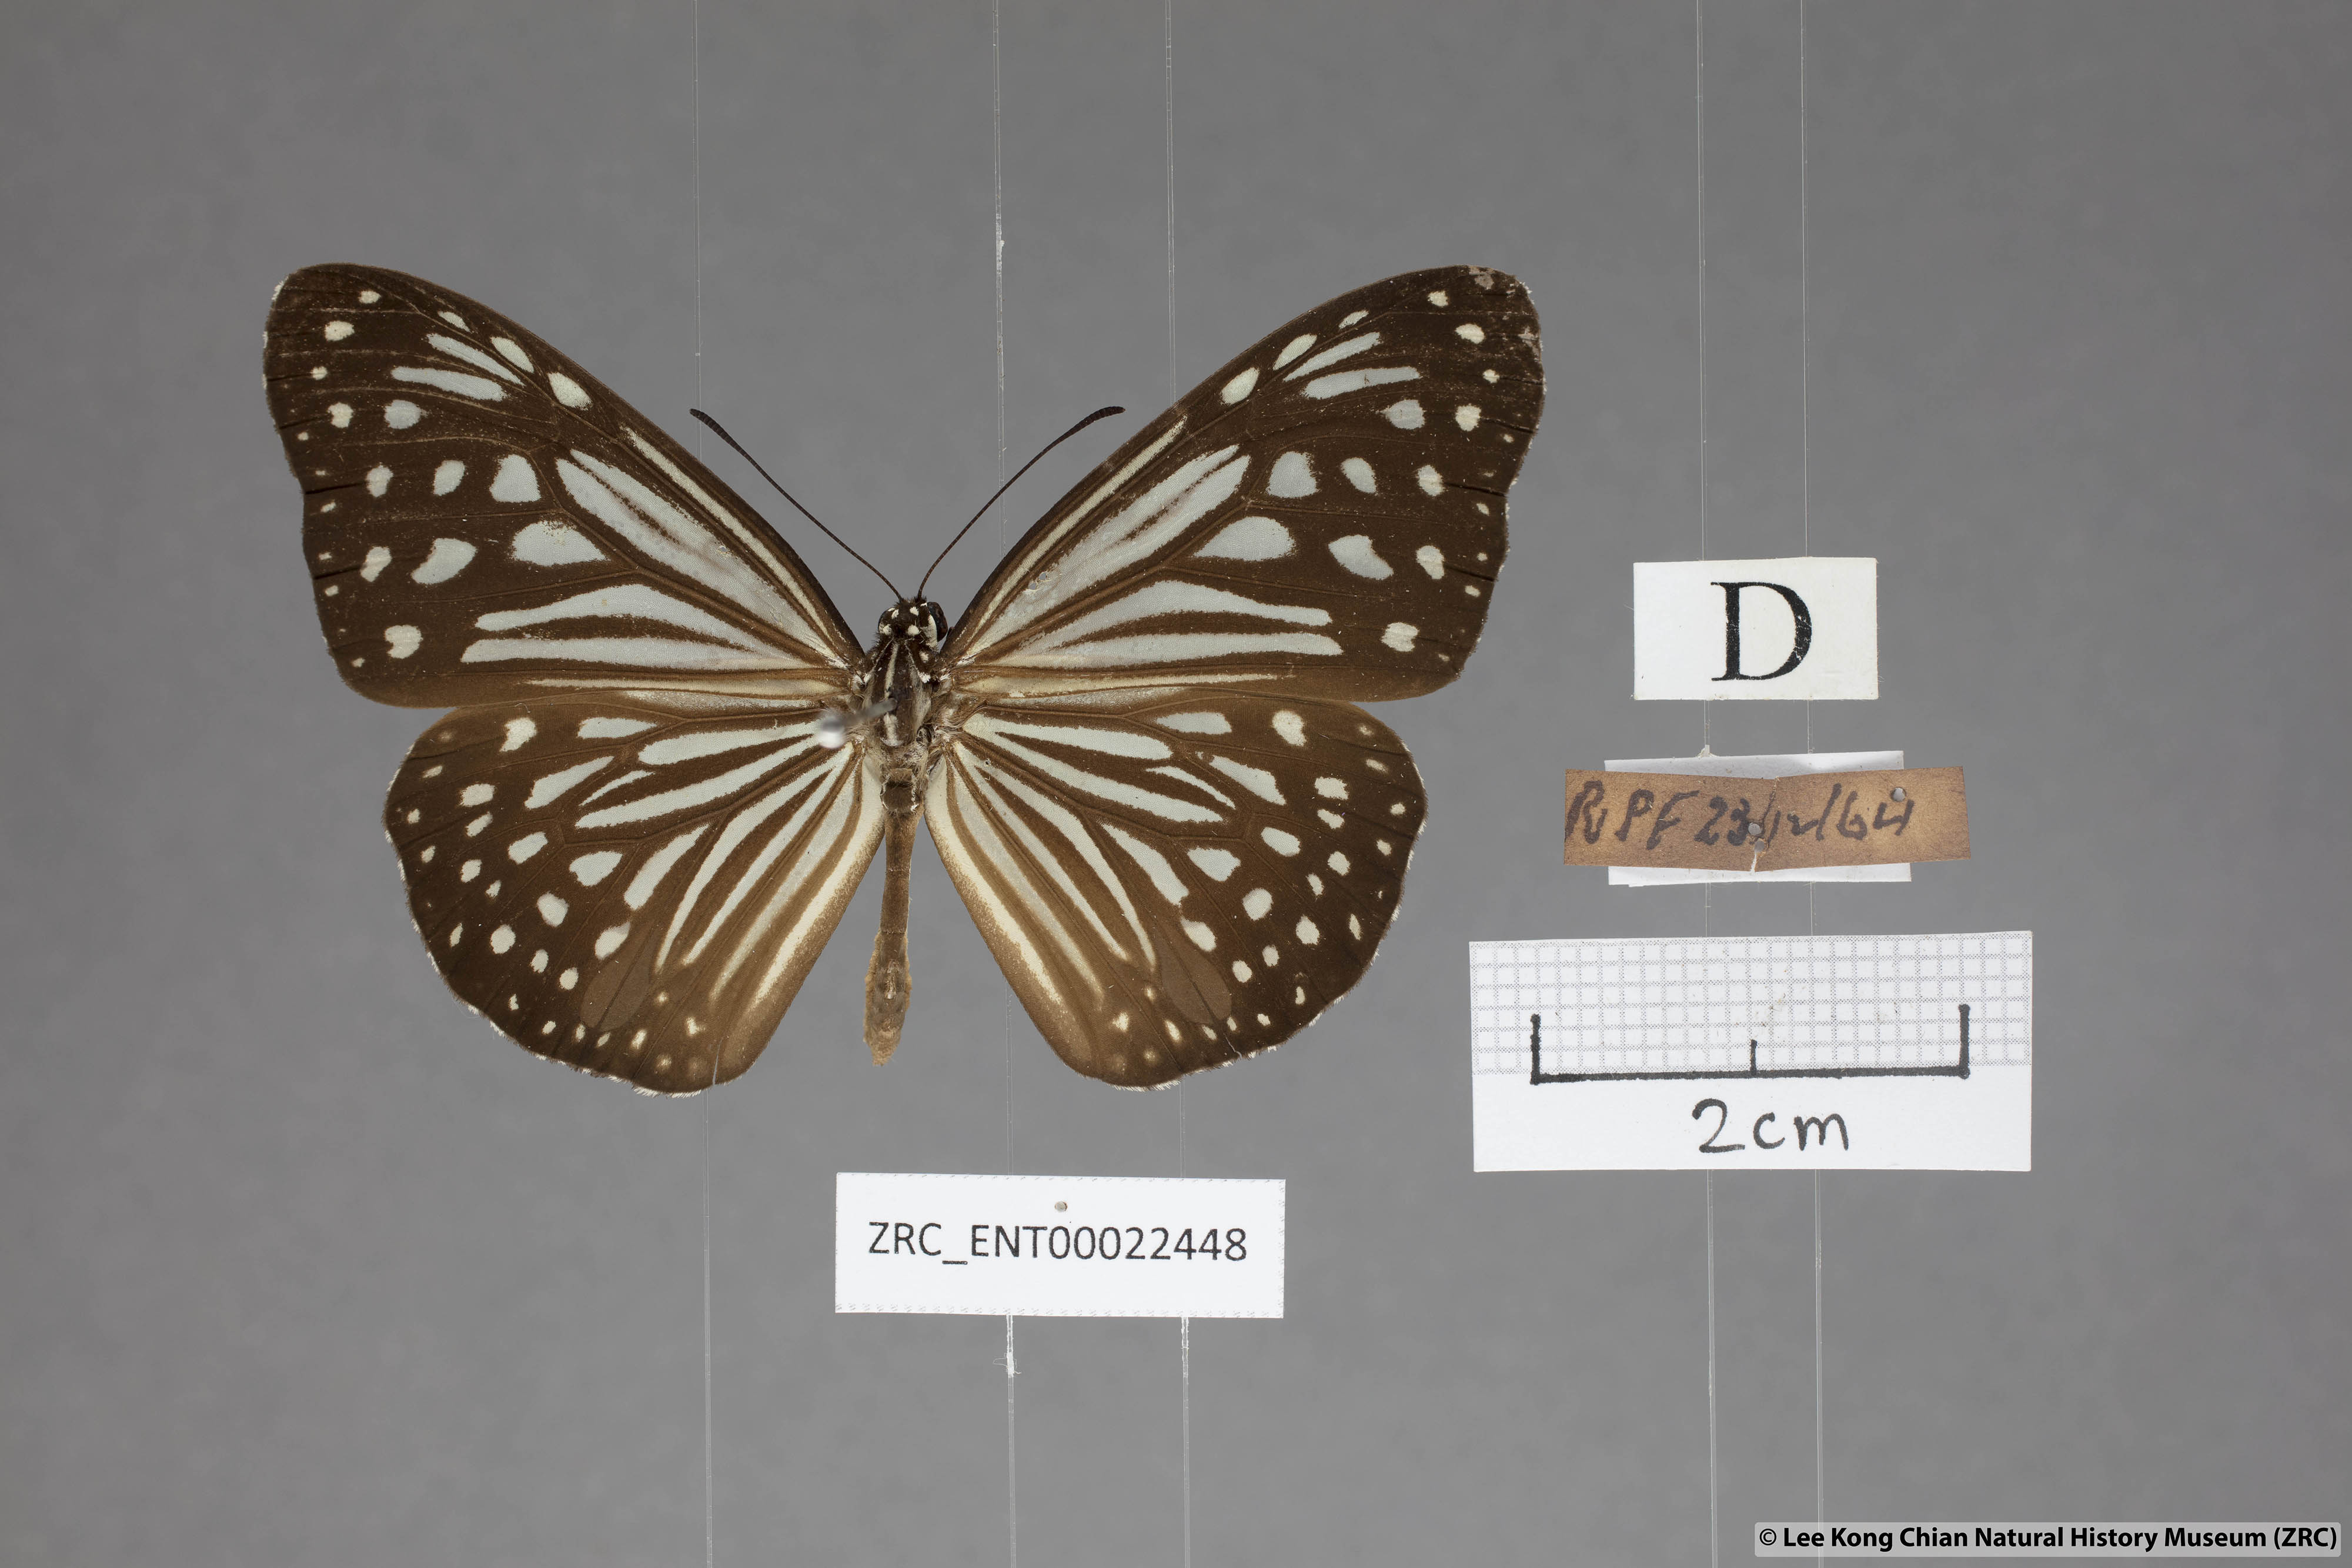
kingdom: Animalia
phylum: Arthropoda
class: Insecta
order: Lepidoptera
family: Nymphalidae
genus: Parantica
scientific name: Parantica agleoides
